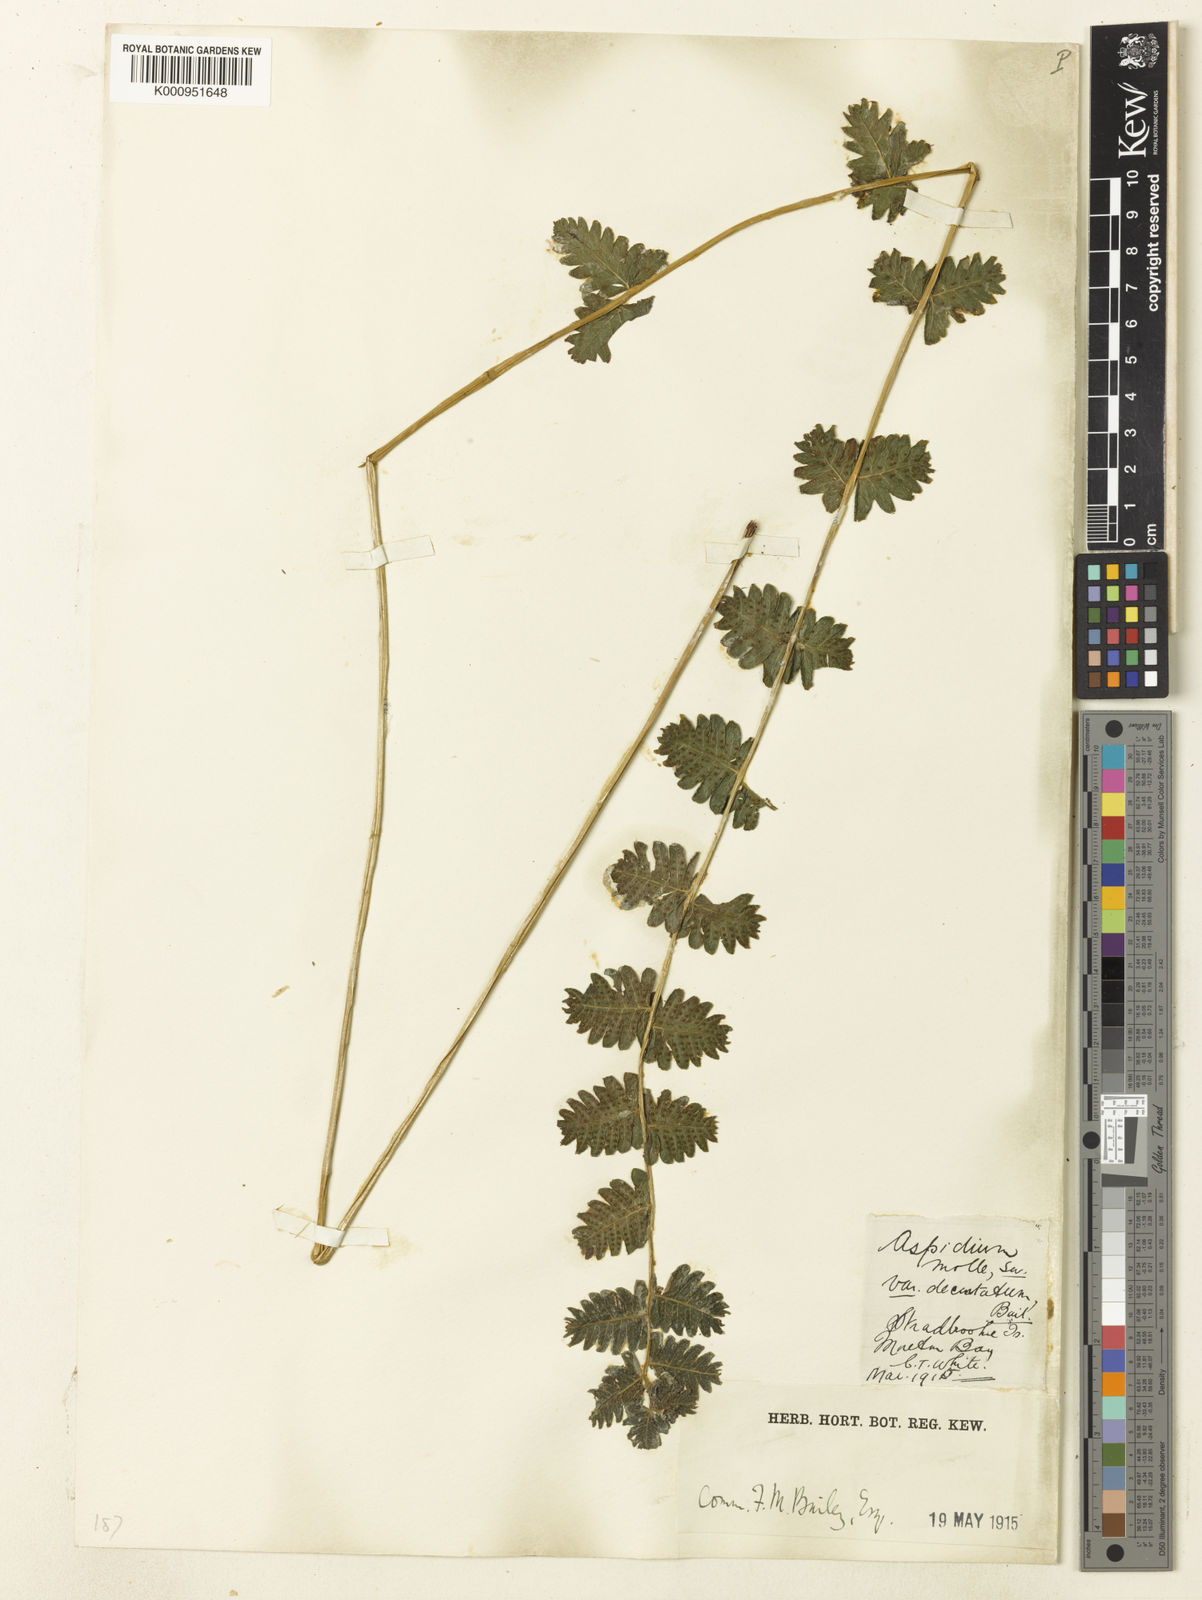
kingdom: Plantae
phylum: Tracheophyta
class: Polypodiopsida
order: Polypodiales
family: Thelypteridaceae
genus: Christella
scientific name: Christella dentata
